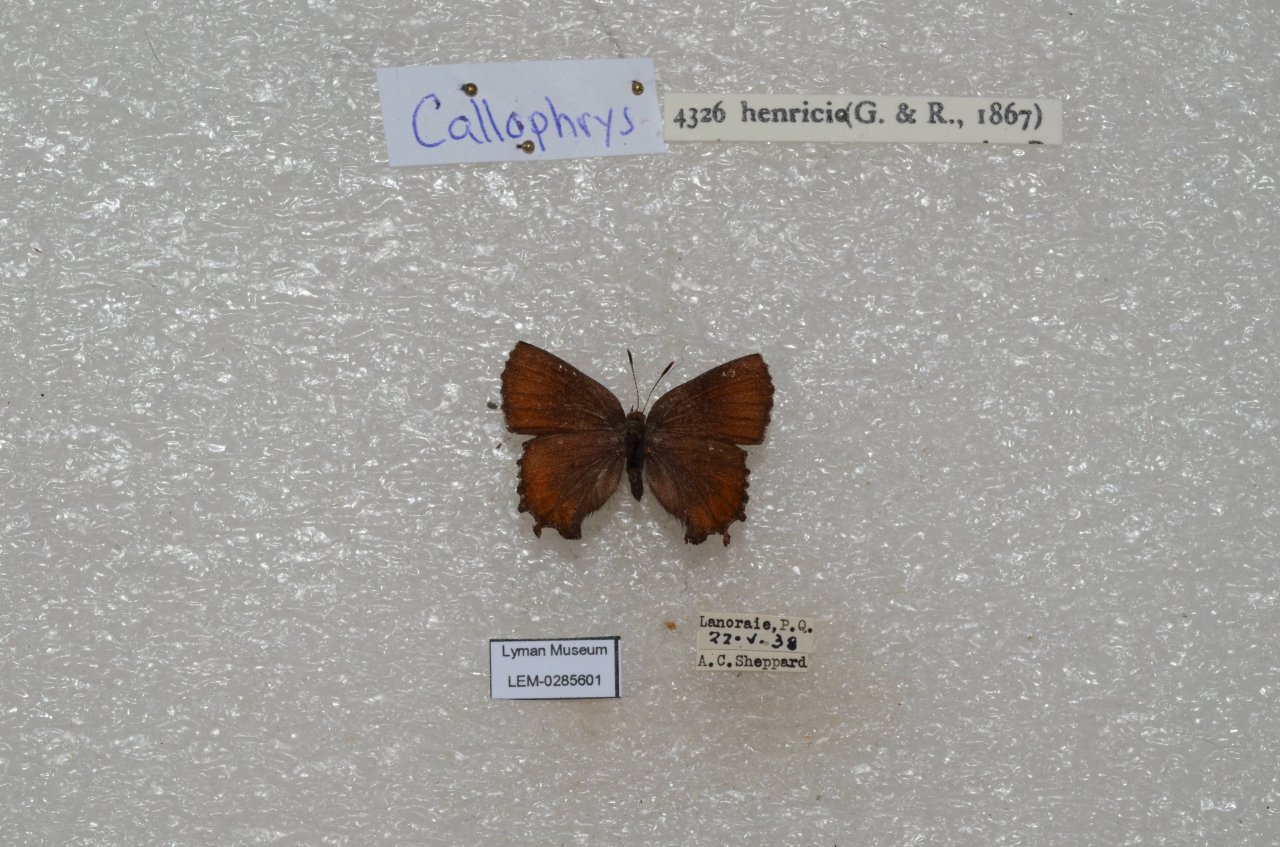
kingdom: Animalia
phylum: Arthropoda
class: Insecta
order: Lepidoptera
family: Lycaenidae
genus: Incisalia
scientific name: Incisalia henrici
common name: Henry's Elfin
